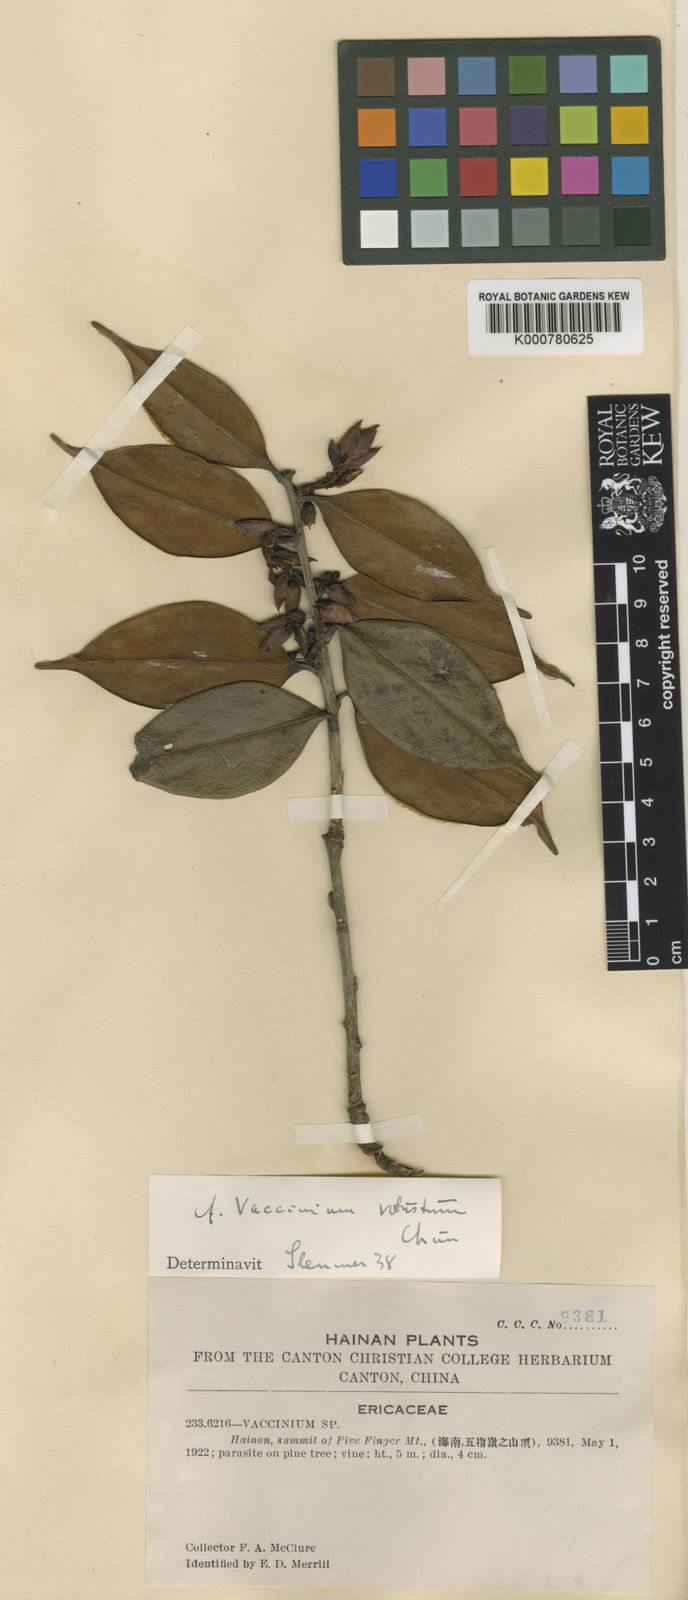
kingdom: Plantae
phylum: Tracheophyta
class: Magnoliopsida
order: Ericales
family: Ericaceae
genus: Vaccinium
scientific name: Vaccinium chunii
